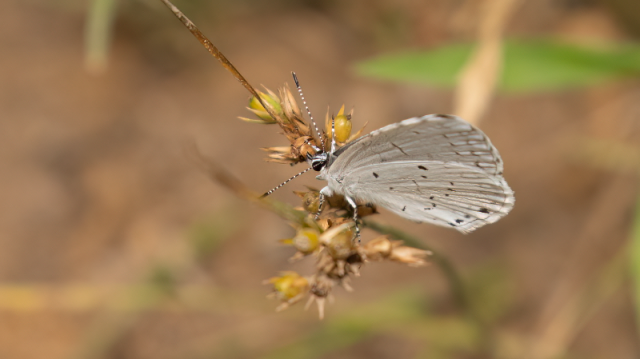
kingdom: Animalia
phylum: Arthropoda
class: Insecta
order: Lepidoptera
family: Lycaenidae
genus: Cyaniris
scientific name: Cyaniris neglecta
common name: Summer Azure
